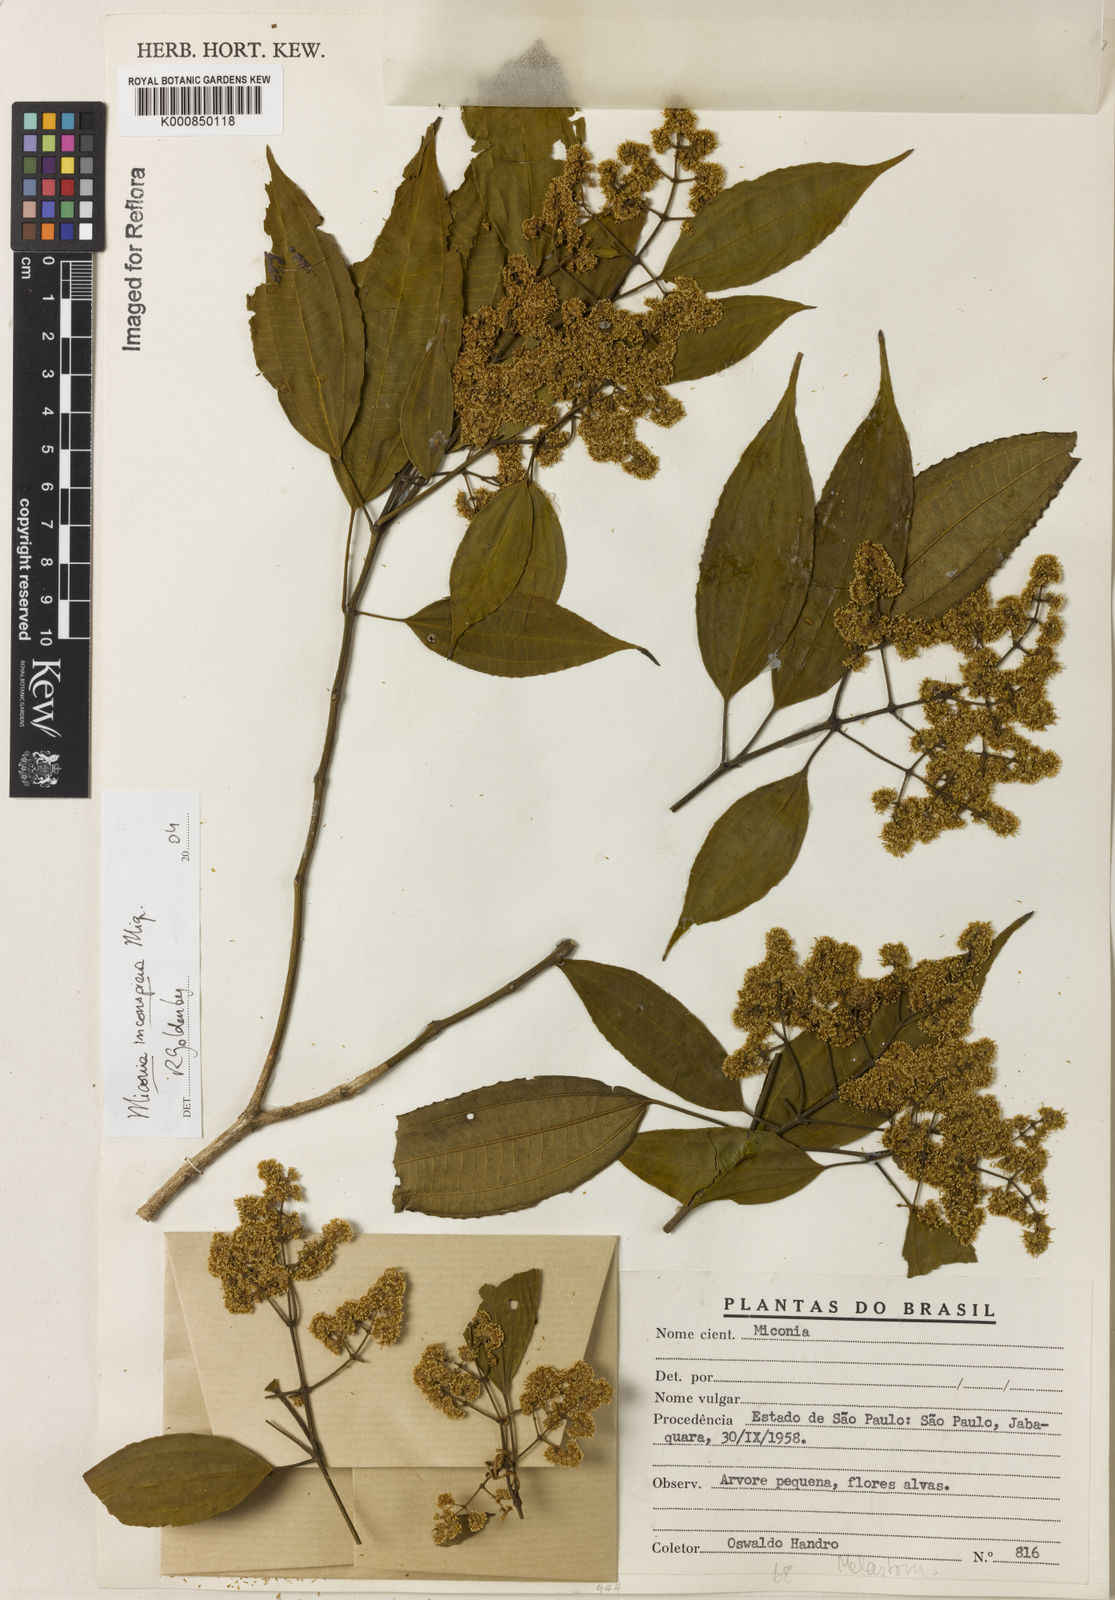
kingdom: Plantae
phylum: Tracheophyta
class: Magnoliopsida
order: Myrtales
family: Melastomataceae
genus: Miconia
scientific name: Miconia inconspicua
